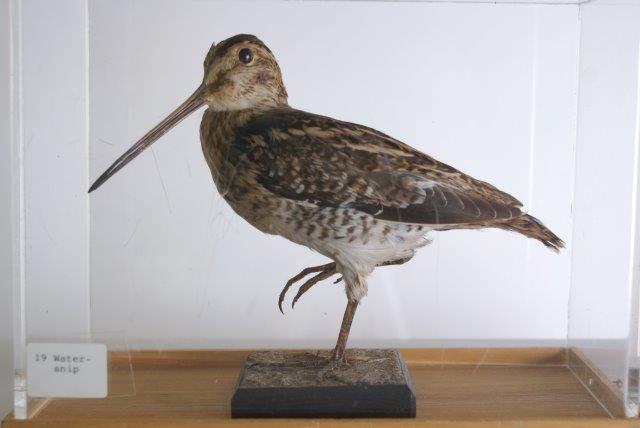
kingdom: Animalia
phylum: Chordata
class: Aves
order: Charadriiformes
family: Scolopacidae
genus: Gallinago
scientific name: Gallinago gallinago
